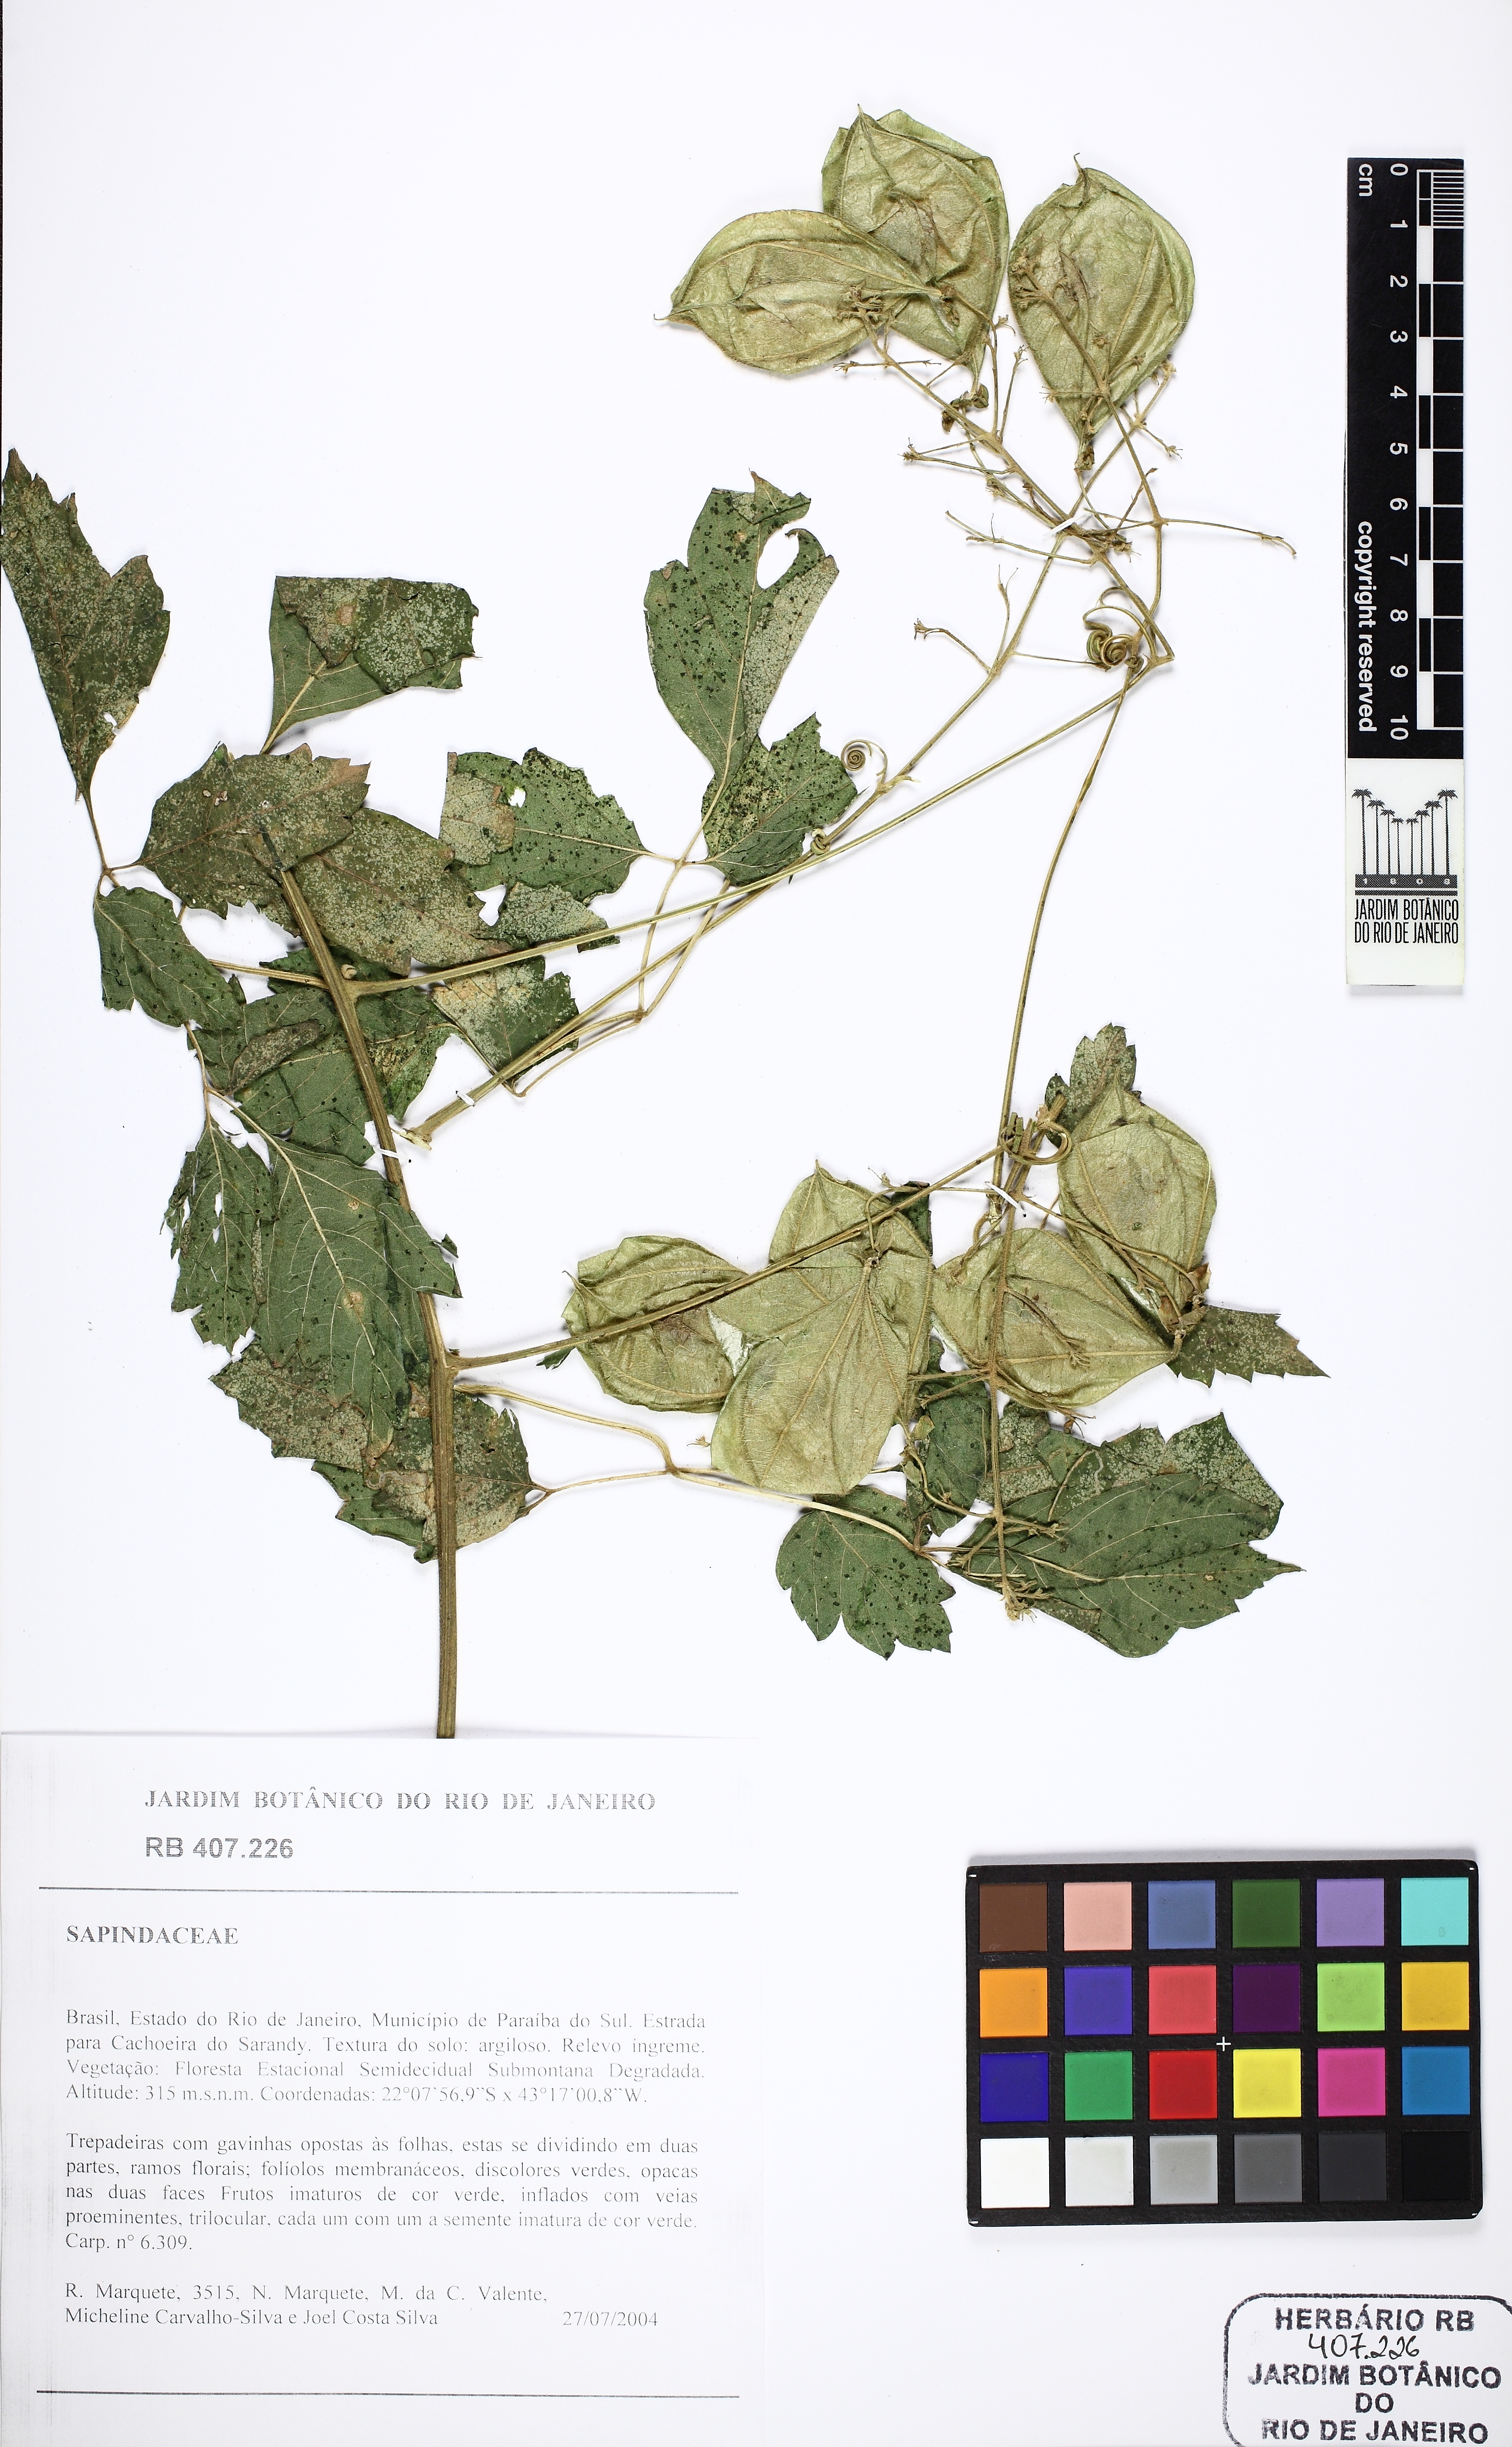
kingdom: Plantae
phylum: Tracheophyta
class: Magnoliopsida
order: Sapindales
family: Sapindaceae
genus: Cardiospermum
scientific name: Cardiospermum grandiflorum
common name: Balloon vine
